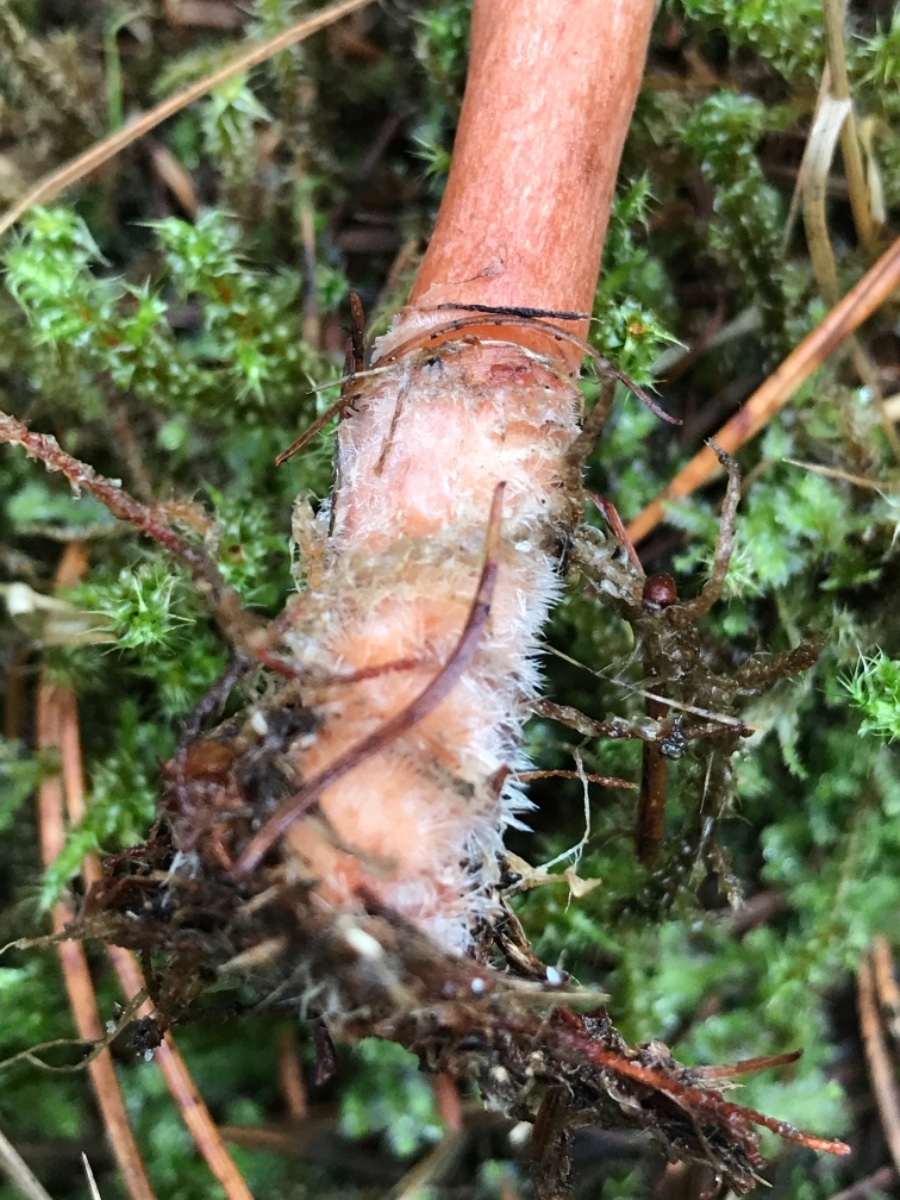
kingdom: Fungi
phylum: Basidiomycota
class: Agaricomycetes
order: Russulales
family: Russulaceae
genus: Lactarius
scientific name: Lactarius hepaticus
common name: leverbrun mælkehat
